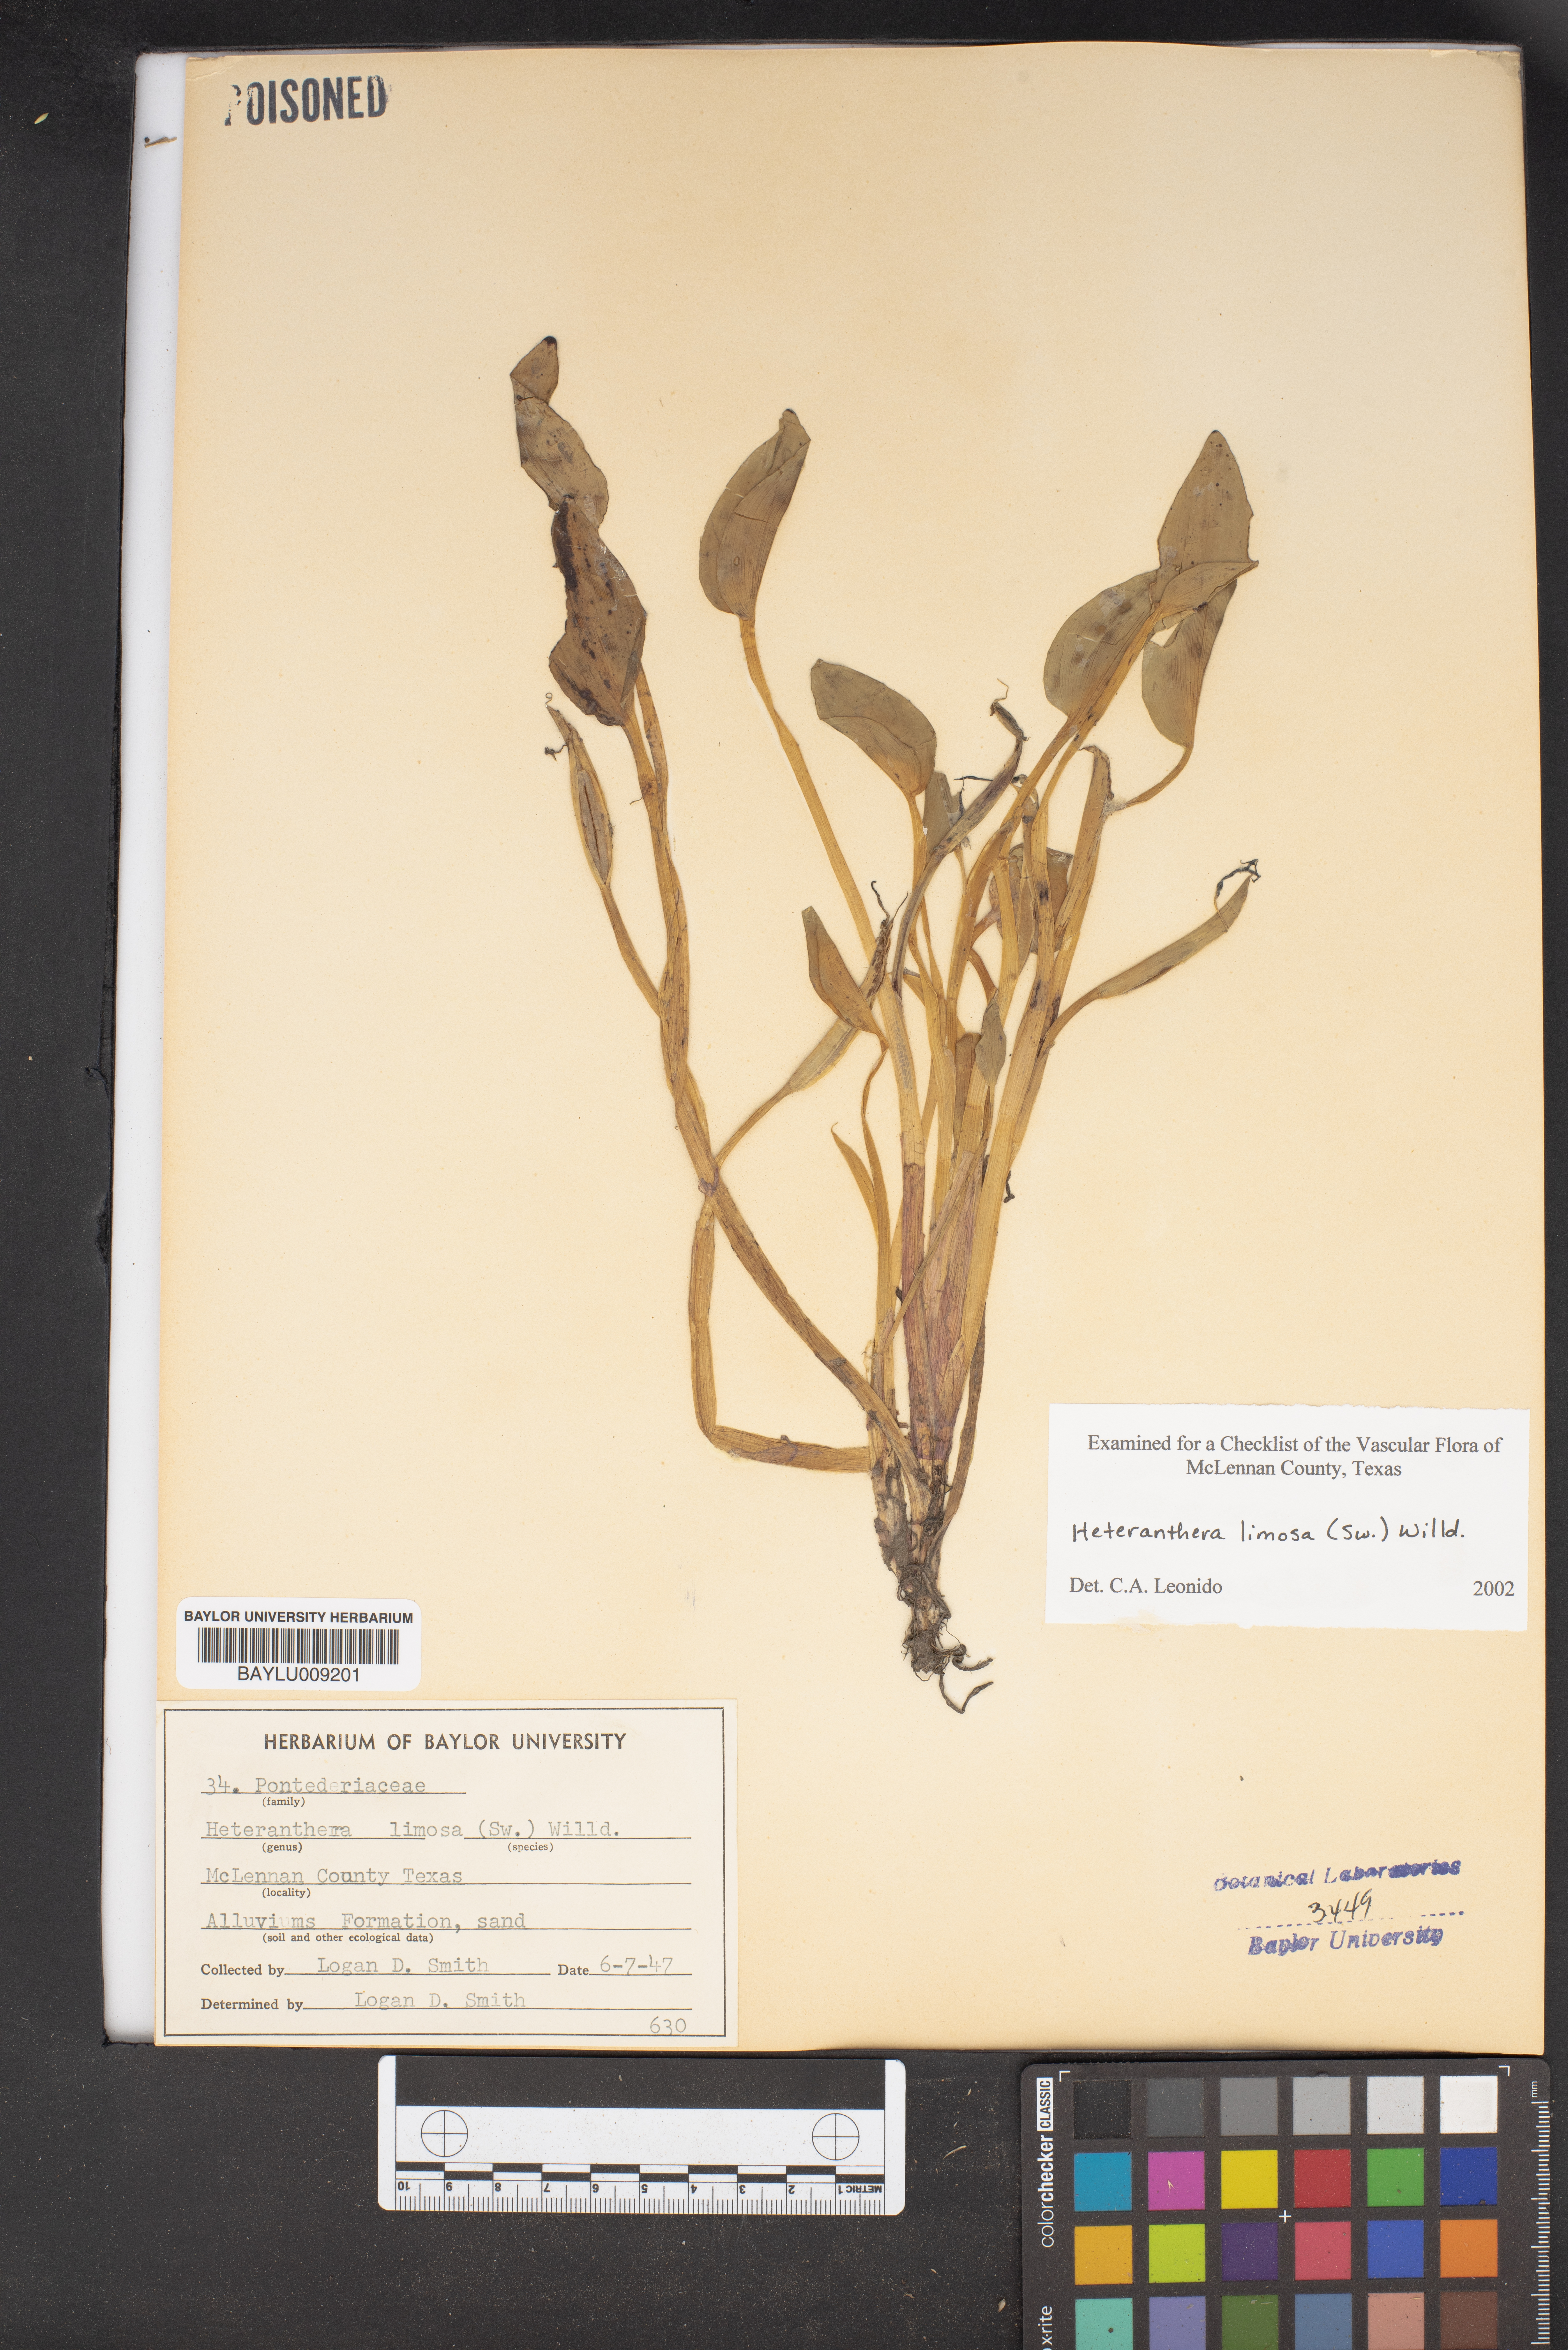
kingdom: Plantae
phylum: Tracheophyta
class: Liliopsida
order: Commelinales
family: Pontederiaceae
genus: Heteranthera
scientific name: Heteranthera limosa
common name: Blue mud-plantain
